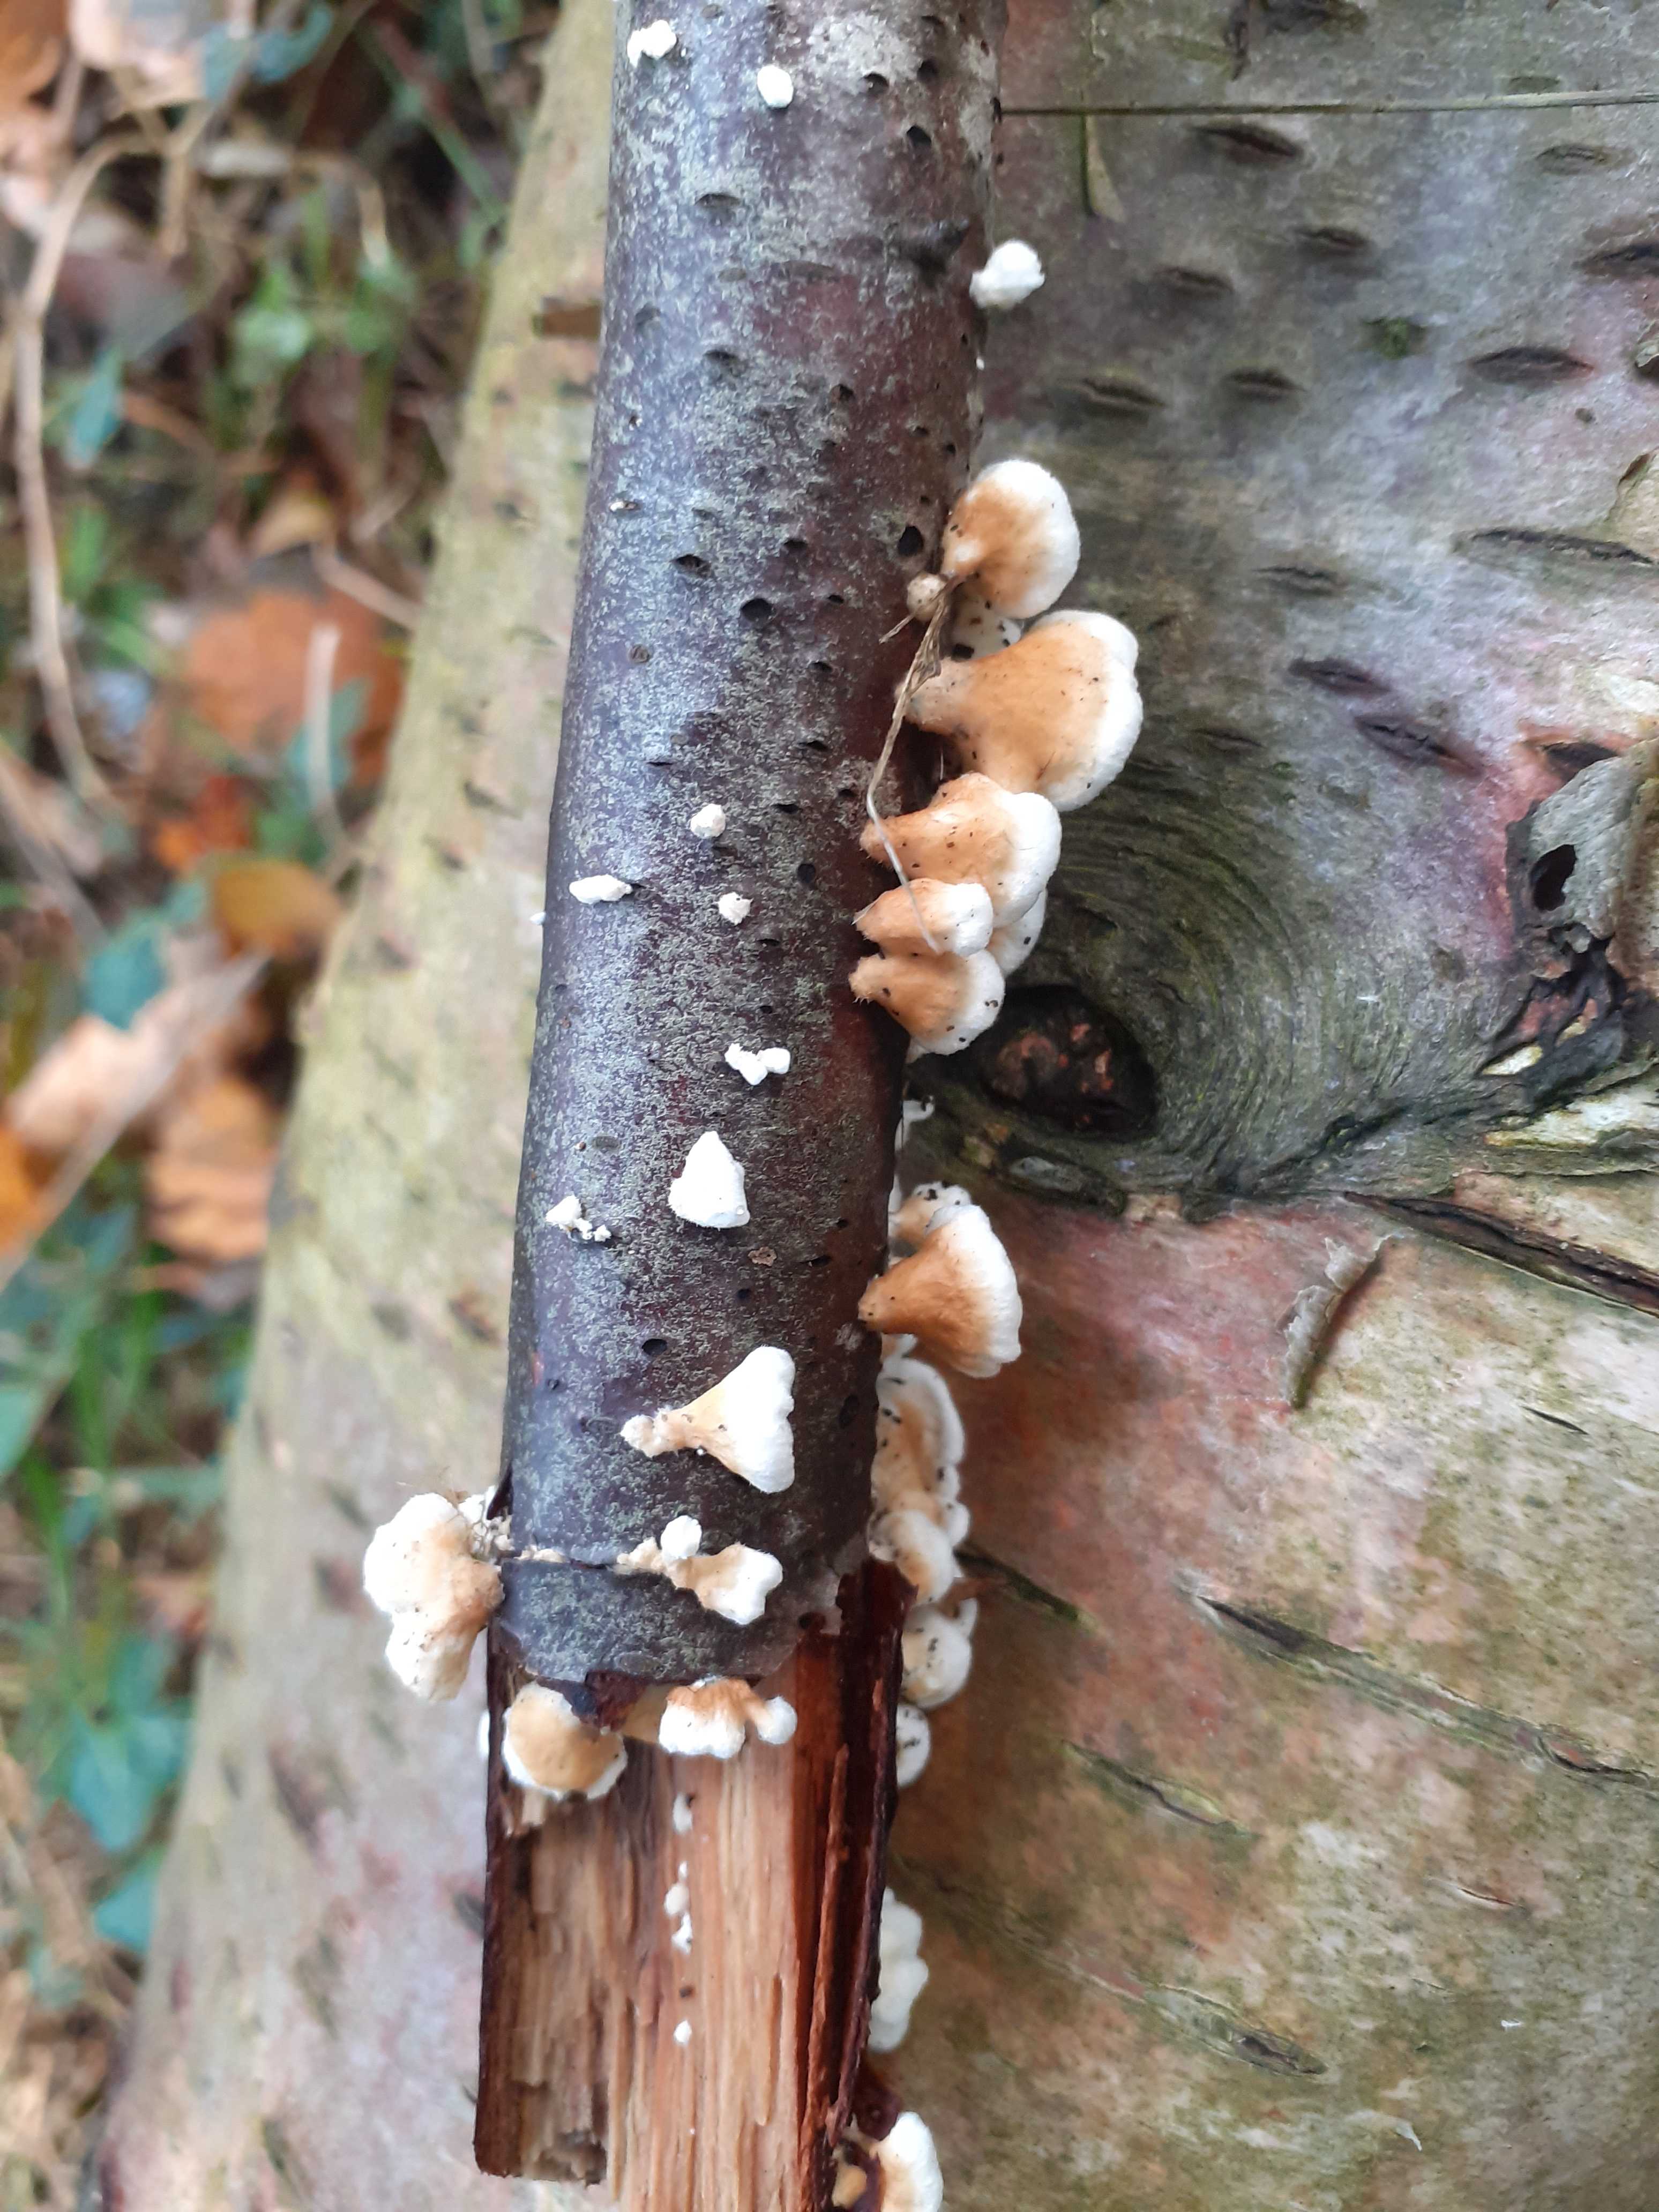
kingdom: Fungi
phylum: Basidiomycota
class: Agaricomycetes
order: Amylocorticiales
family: Amylocorticiaceae
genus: Plicaturopsis
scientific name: Plicaturopsis crispa
